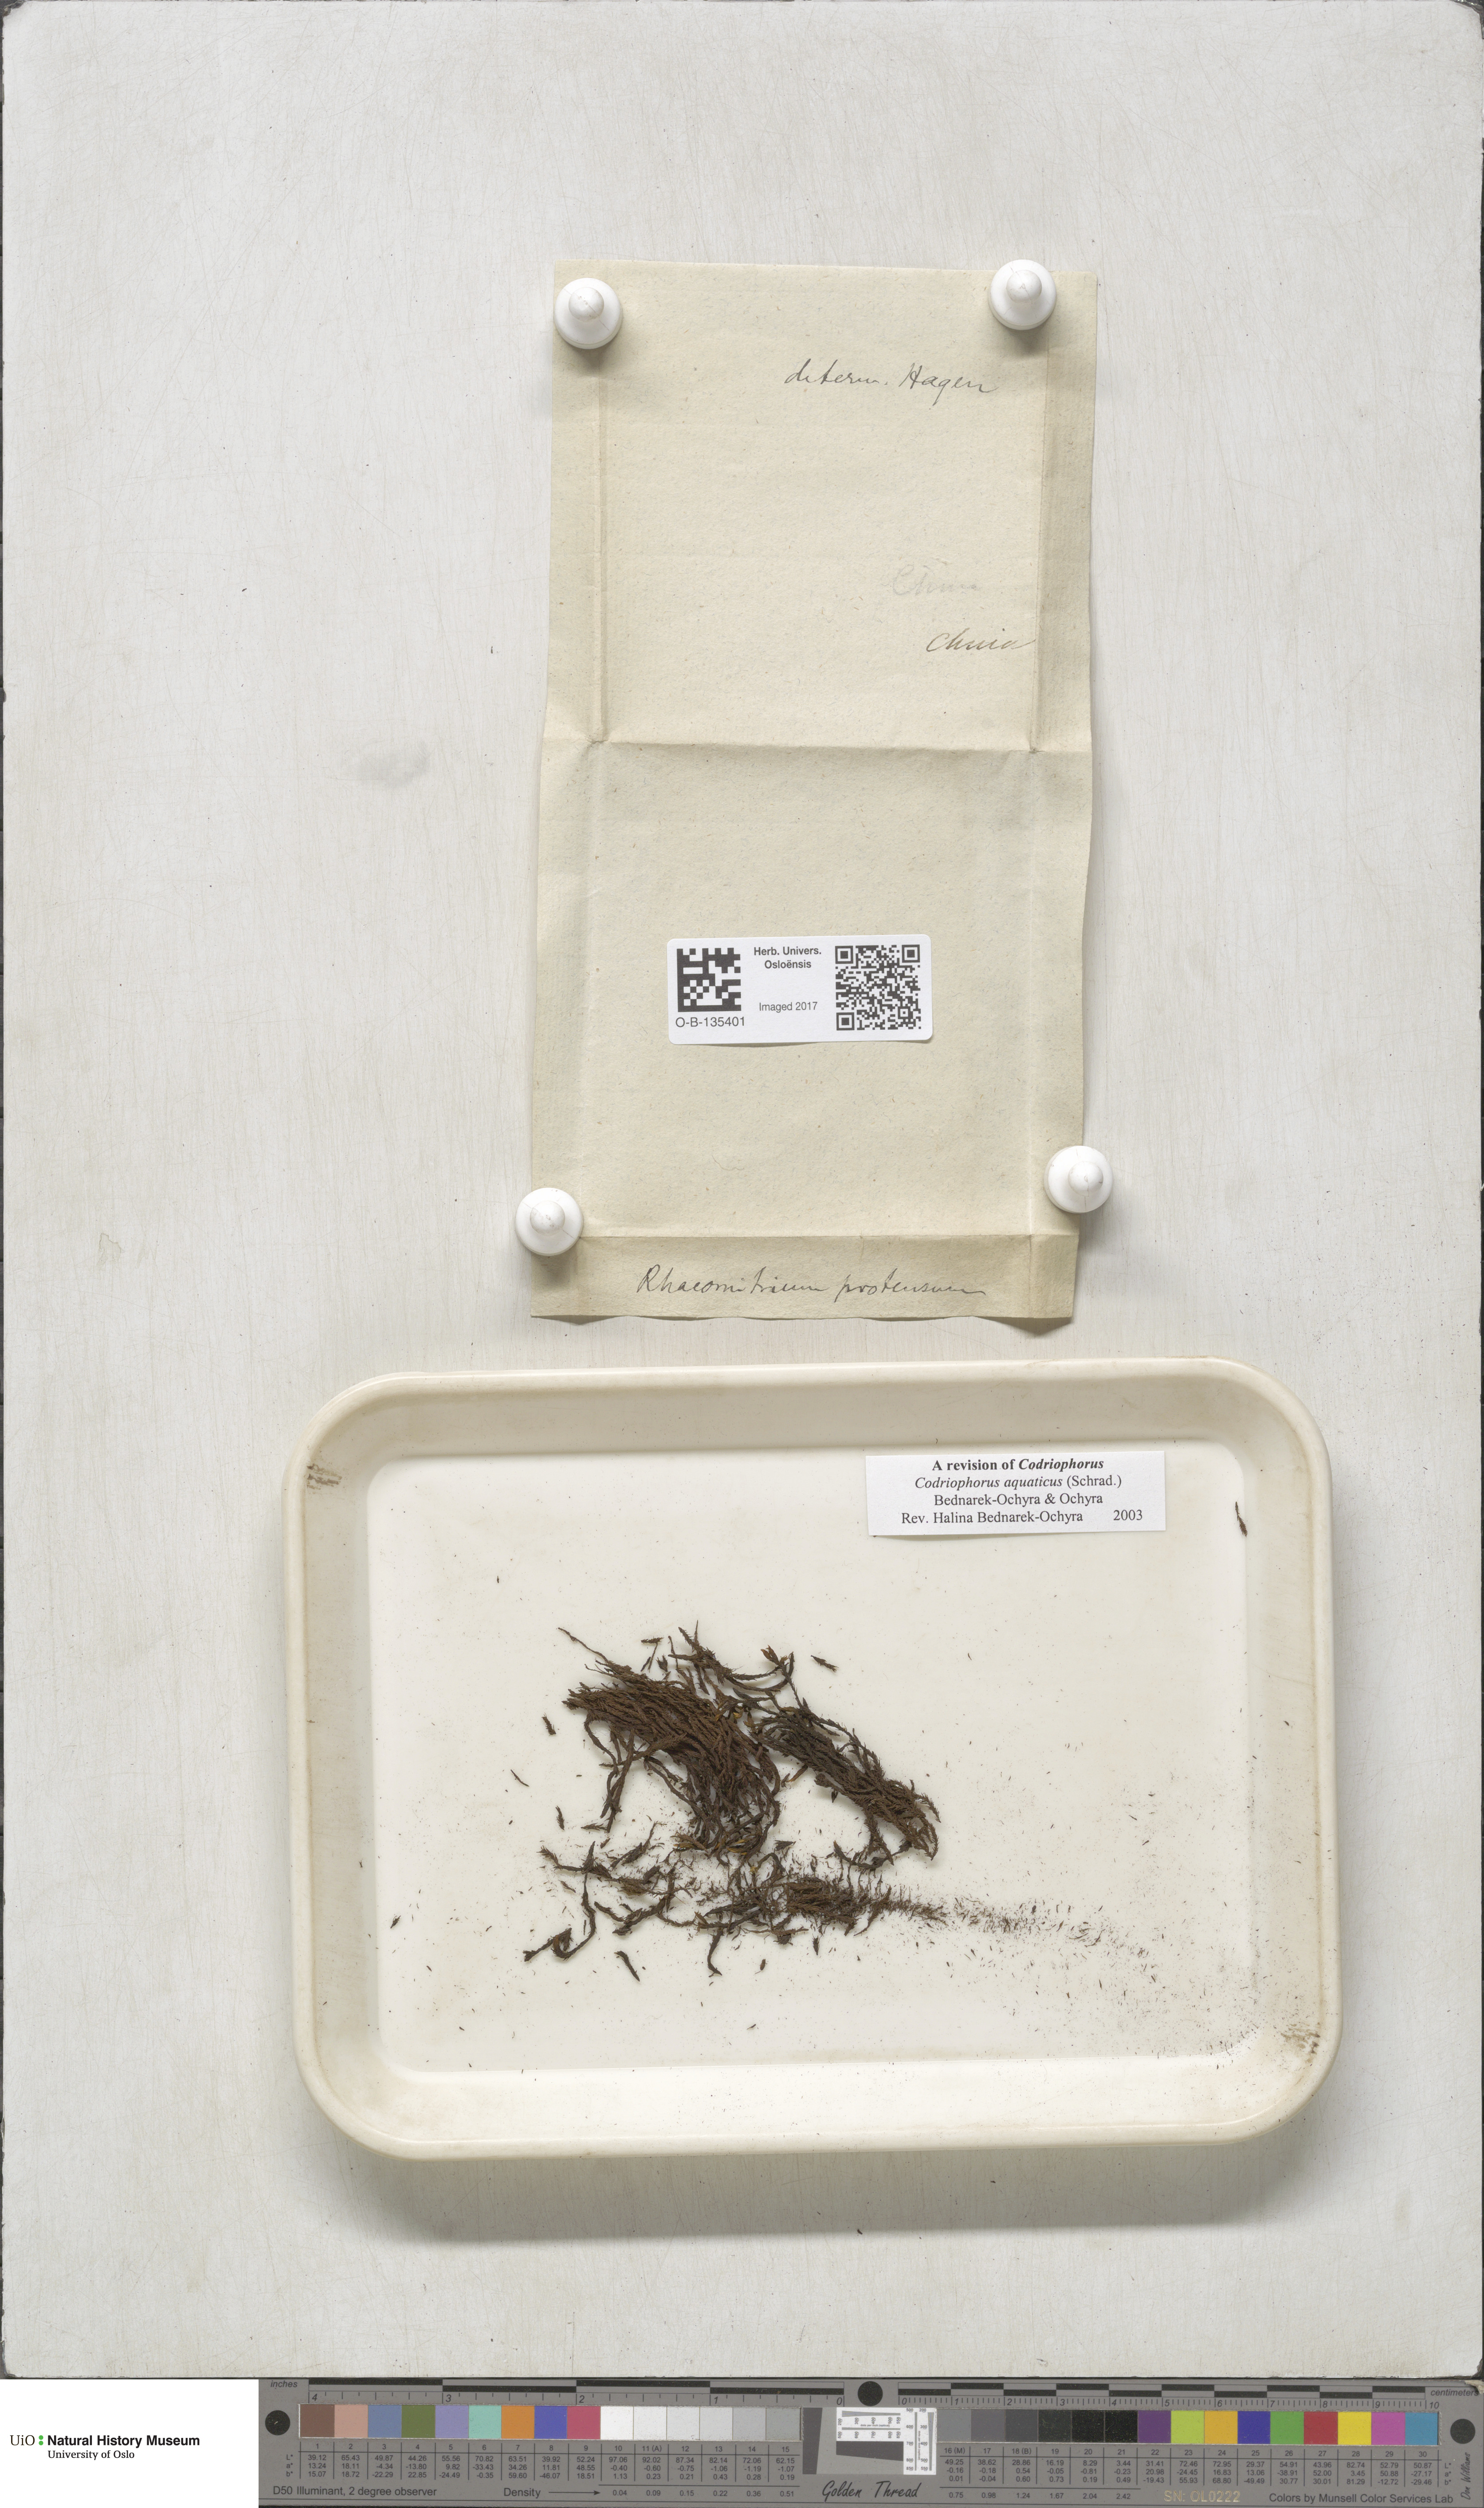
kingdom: Plantae
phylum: Bryophyta
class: Bryopsida
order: Grimmiales
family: Grimmiaceae
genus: Codriophorus
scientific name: Codriophorus aquaticus
